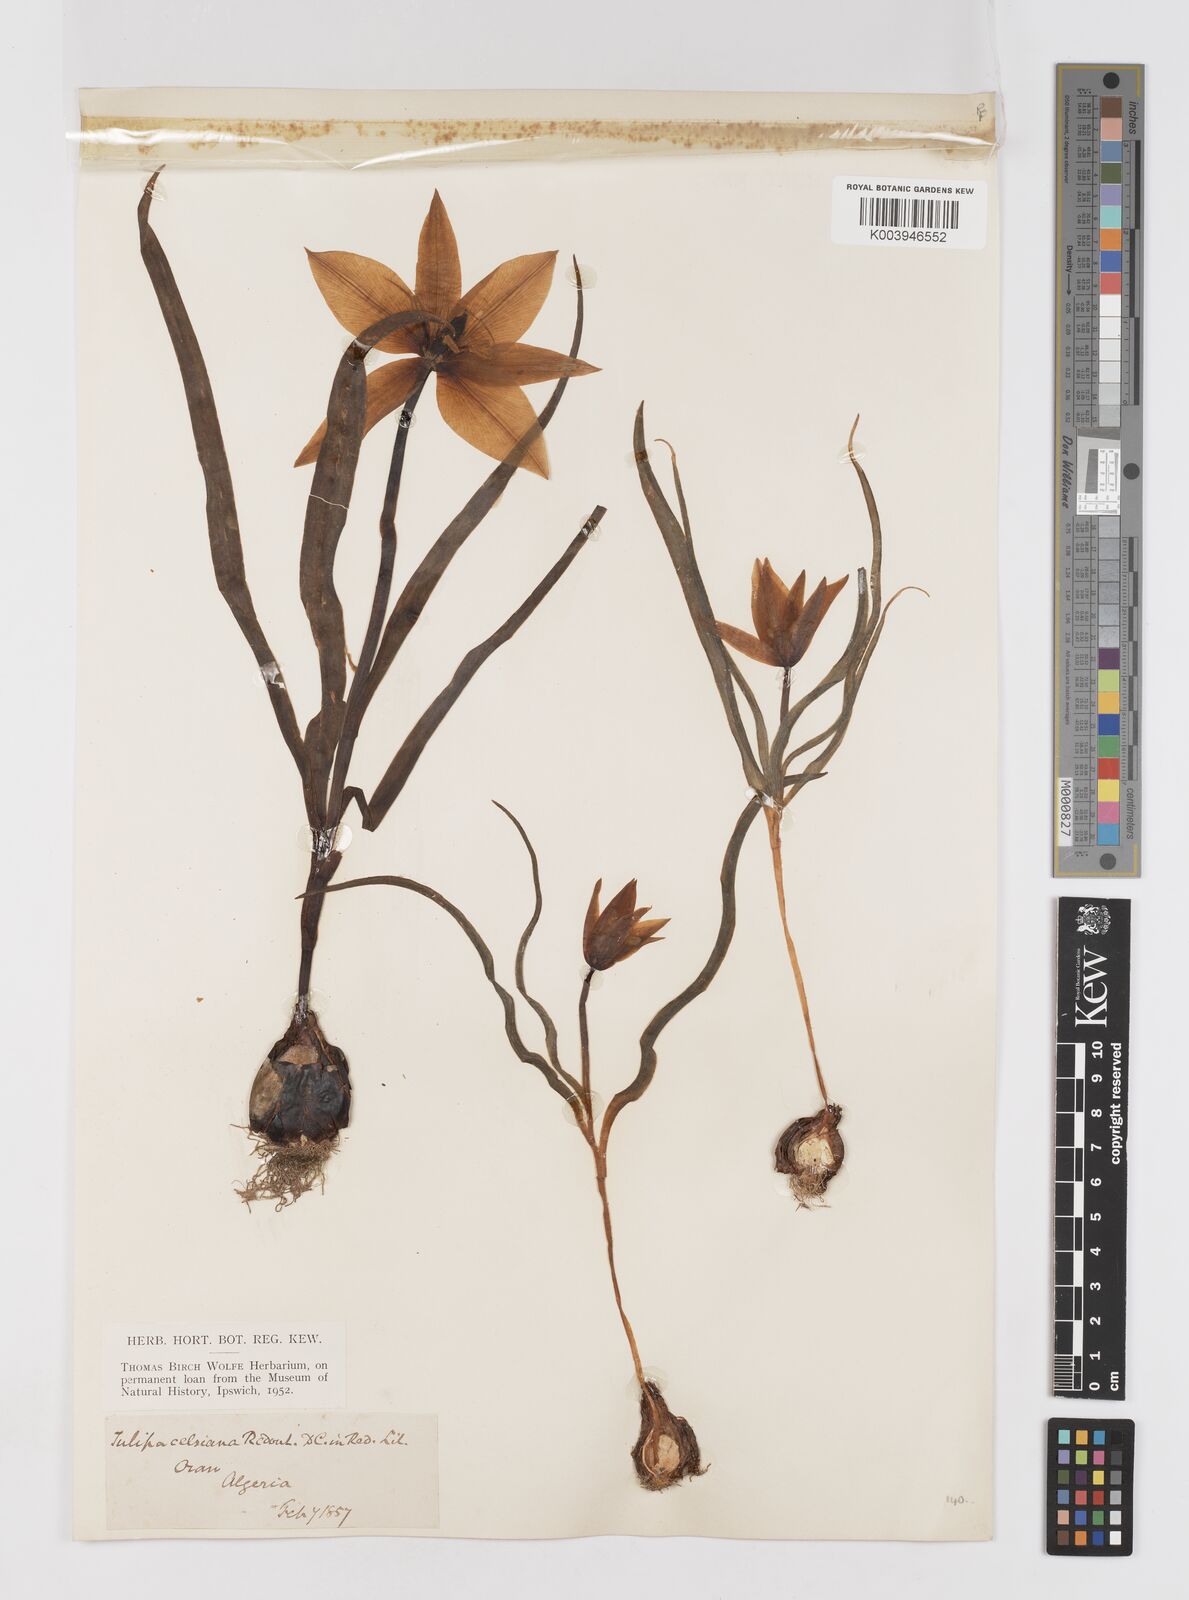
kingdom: Plantae
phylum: Tracheophyta
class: Liliopsida
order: Liliales
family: Liliaceae
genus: Tulipa
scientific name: Tulipa sylvestris
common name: Wild tulip
